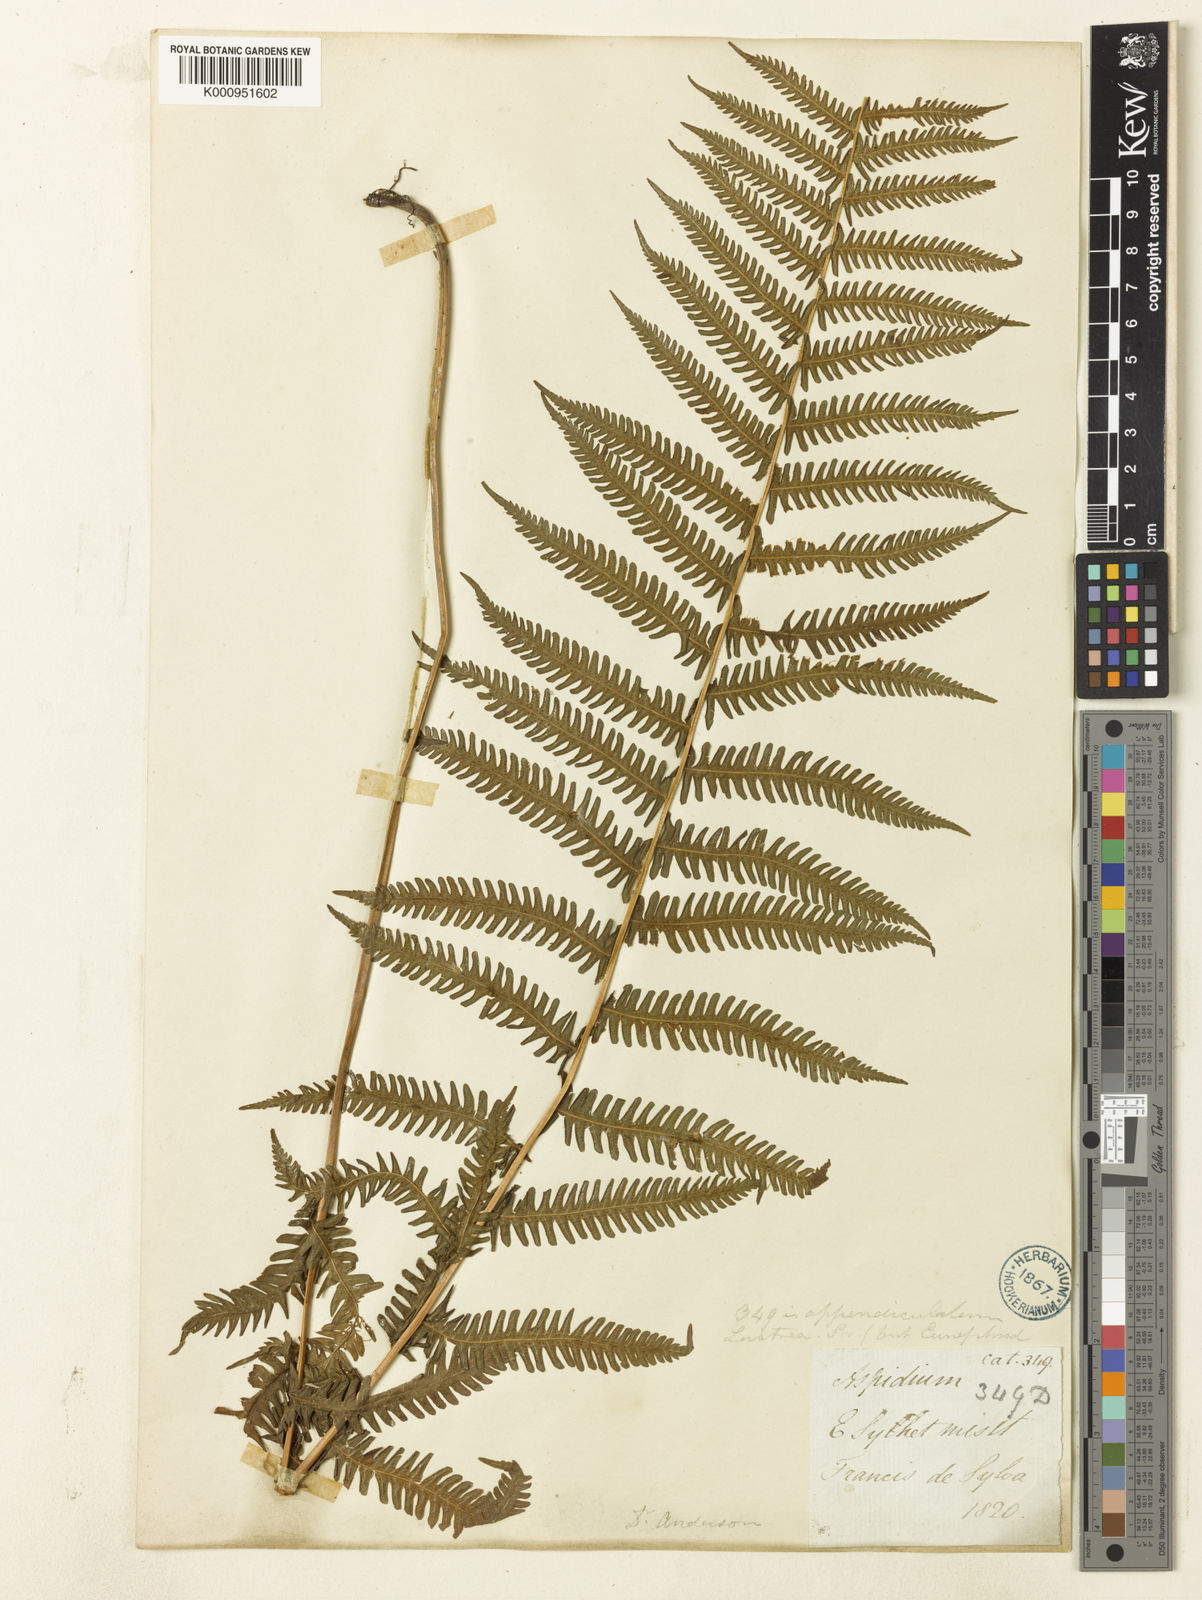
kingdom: Plantae
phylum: Tracheophyta
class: Polypodiopsida
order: Polypodiales
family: Thelypteridaceae
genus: Christella
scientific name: Christella procera
